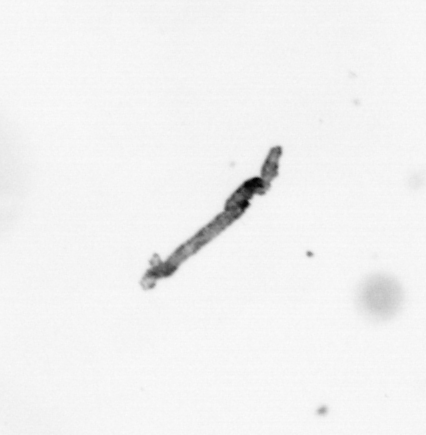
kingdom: Bacteria
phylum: Cyanobacteria
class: Cyanobacteriia
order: Cyanobacteriales
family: Microcoleaceae
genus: Trichodesmium
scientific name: Trichodesmium
